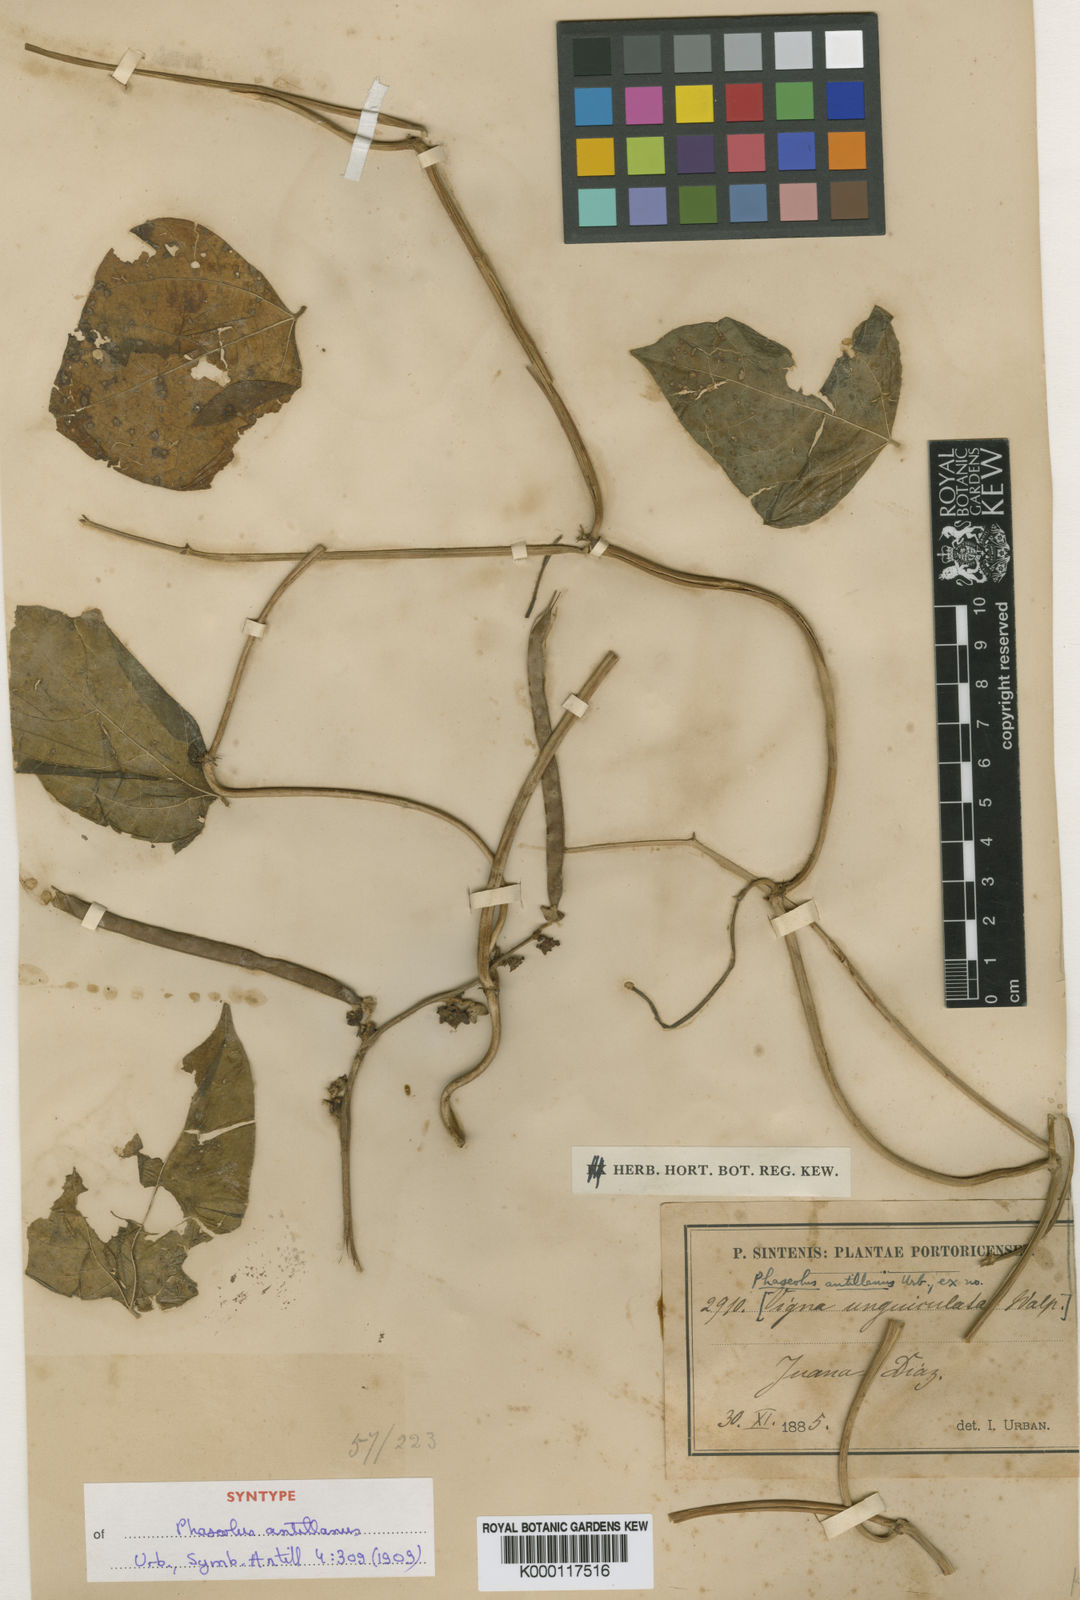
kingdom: Plantae
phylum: Tracheophyta
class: Magnoliopsida
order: Fabales
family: Fabaceae
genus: Sigmoidotropis
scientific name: Sigmoidotropis antillana
